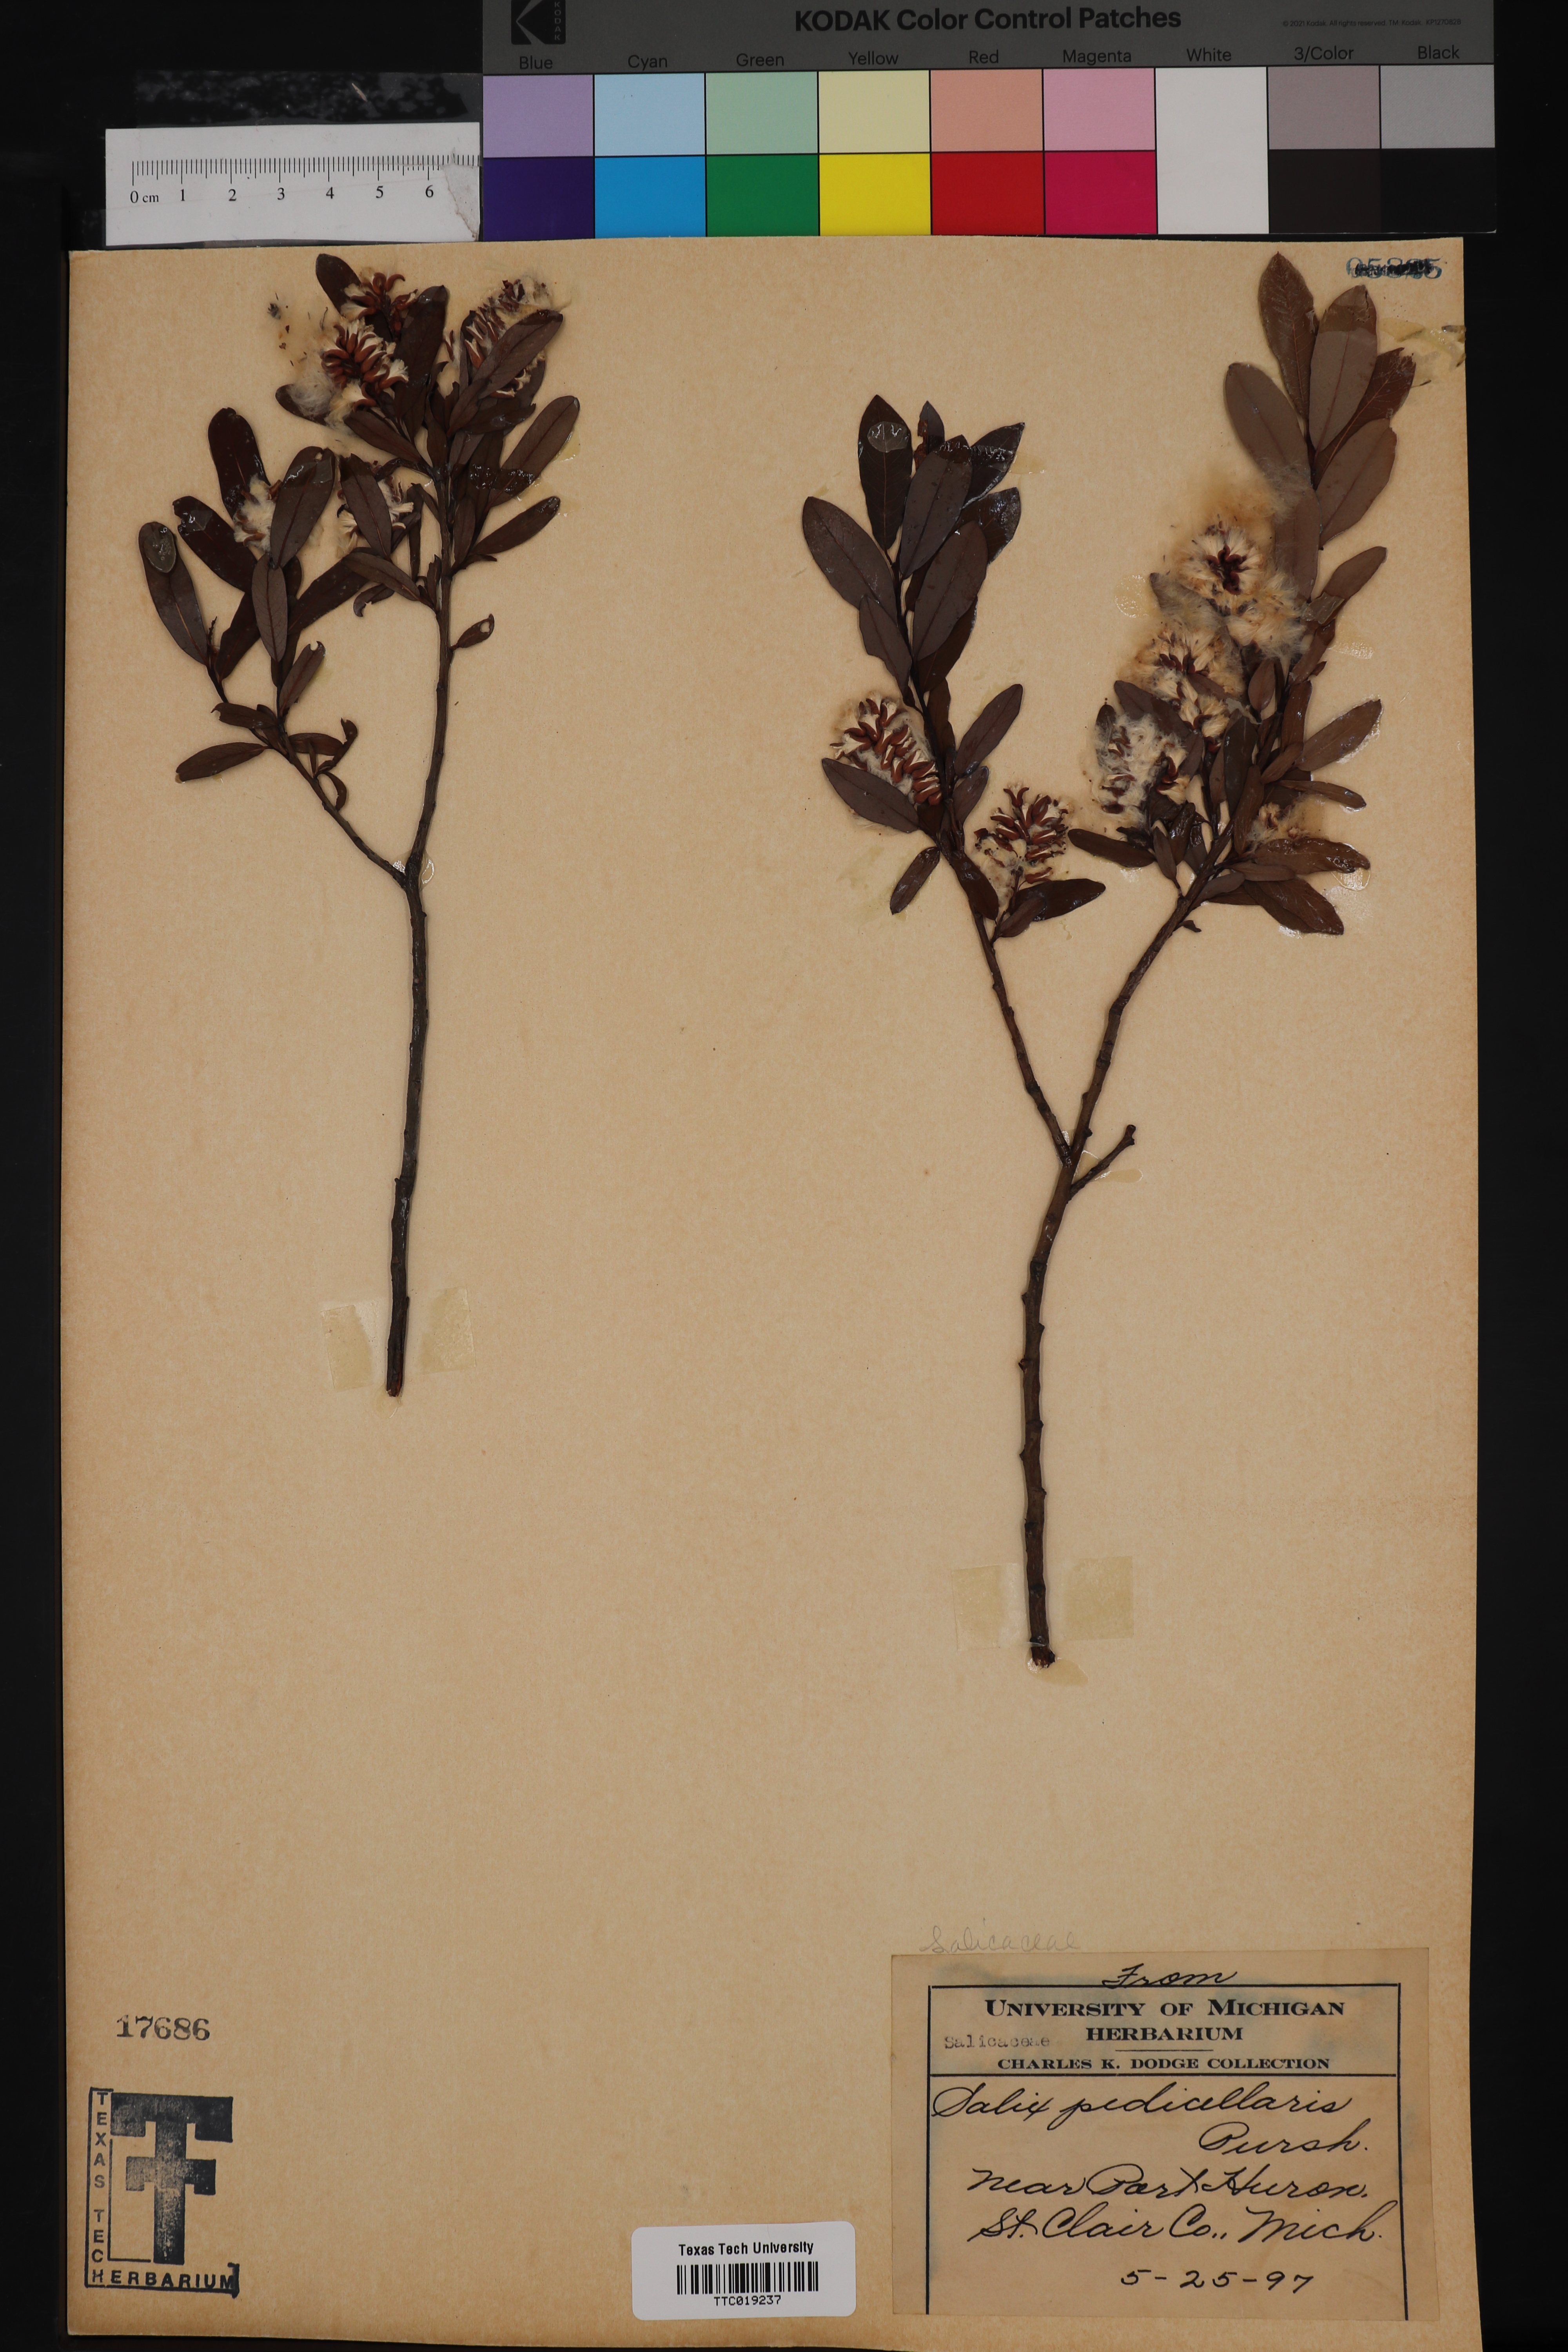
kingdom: Plantae
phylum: Tracheophyta
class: Magnoliopsida
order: Malpighiales
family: Salicaceae
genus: Salix
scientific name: Salix pedicellaris
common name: Bog willow
